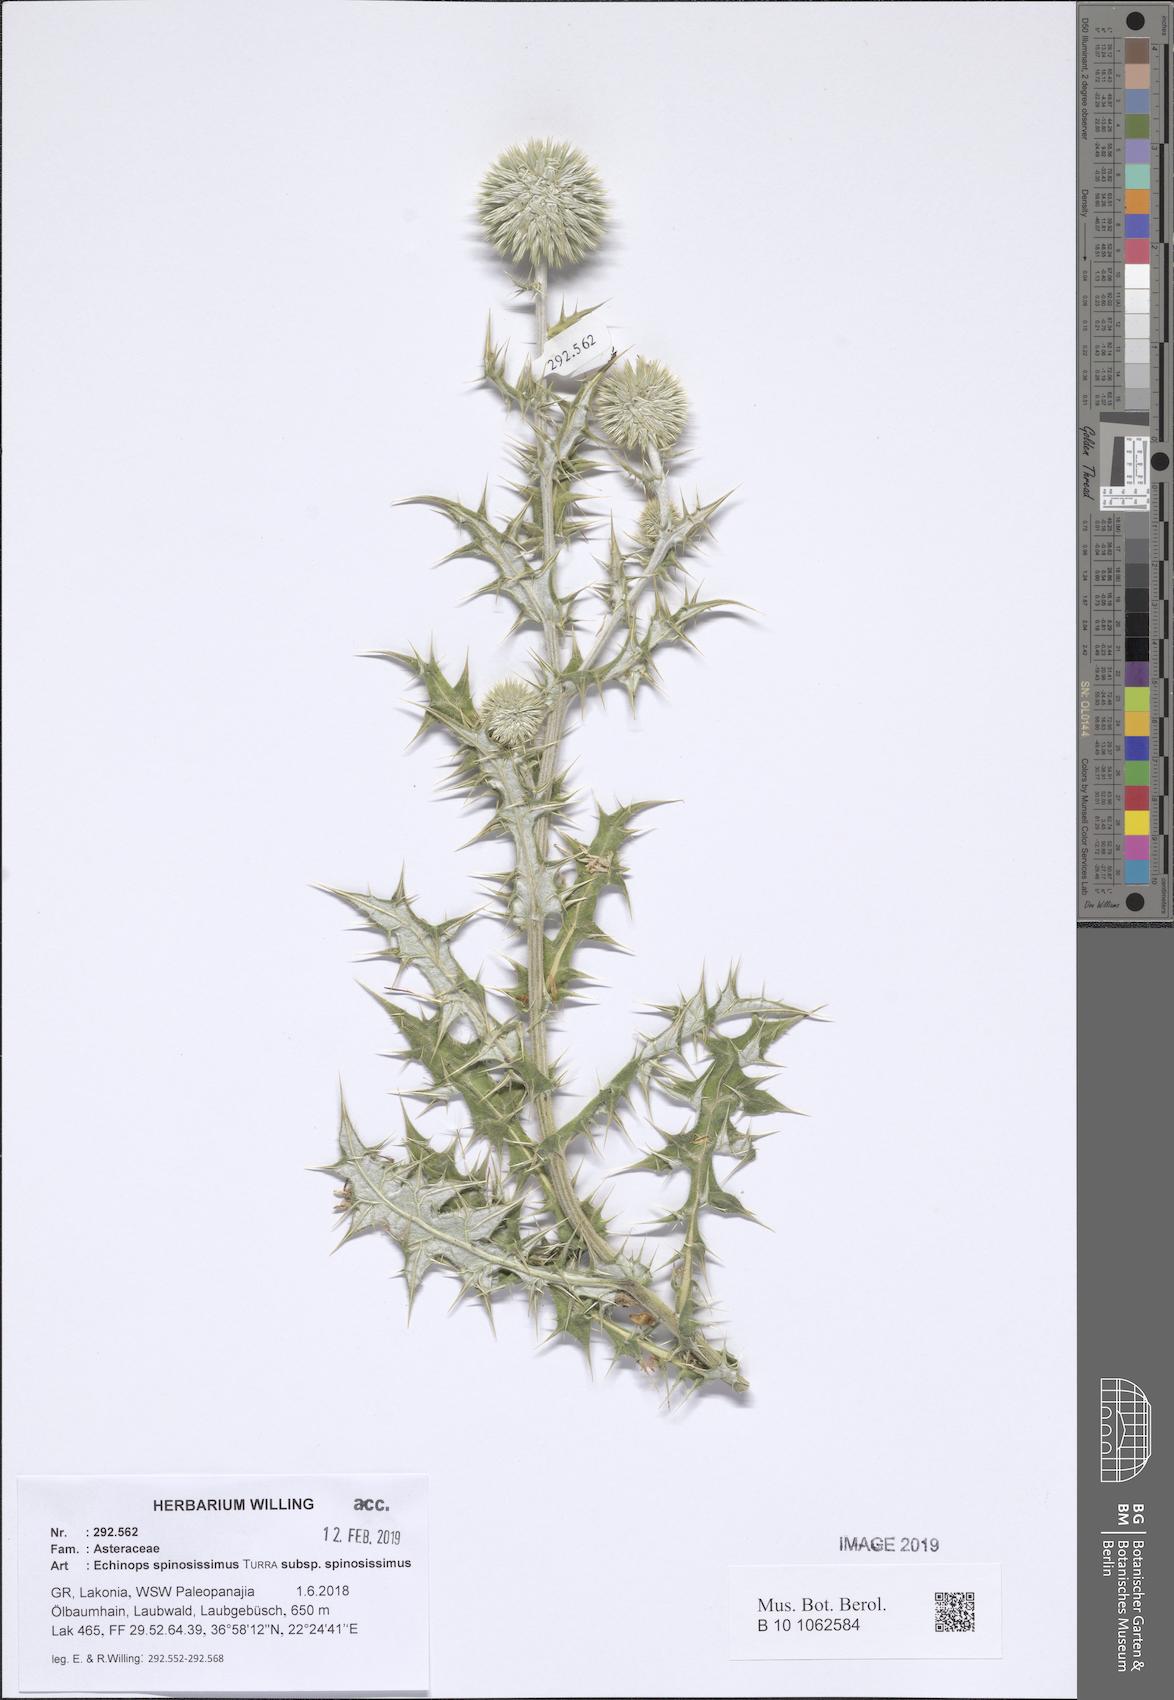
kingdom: Plantae
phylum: Tracheophyta
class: Magnoliopsida
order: Asterales
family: Asteraceae
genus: Echinops
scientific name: Echinops spinosissimus
